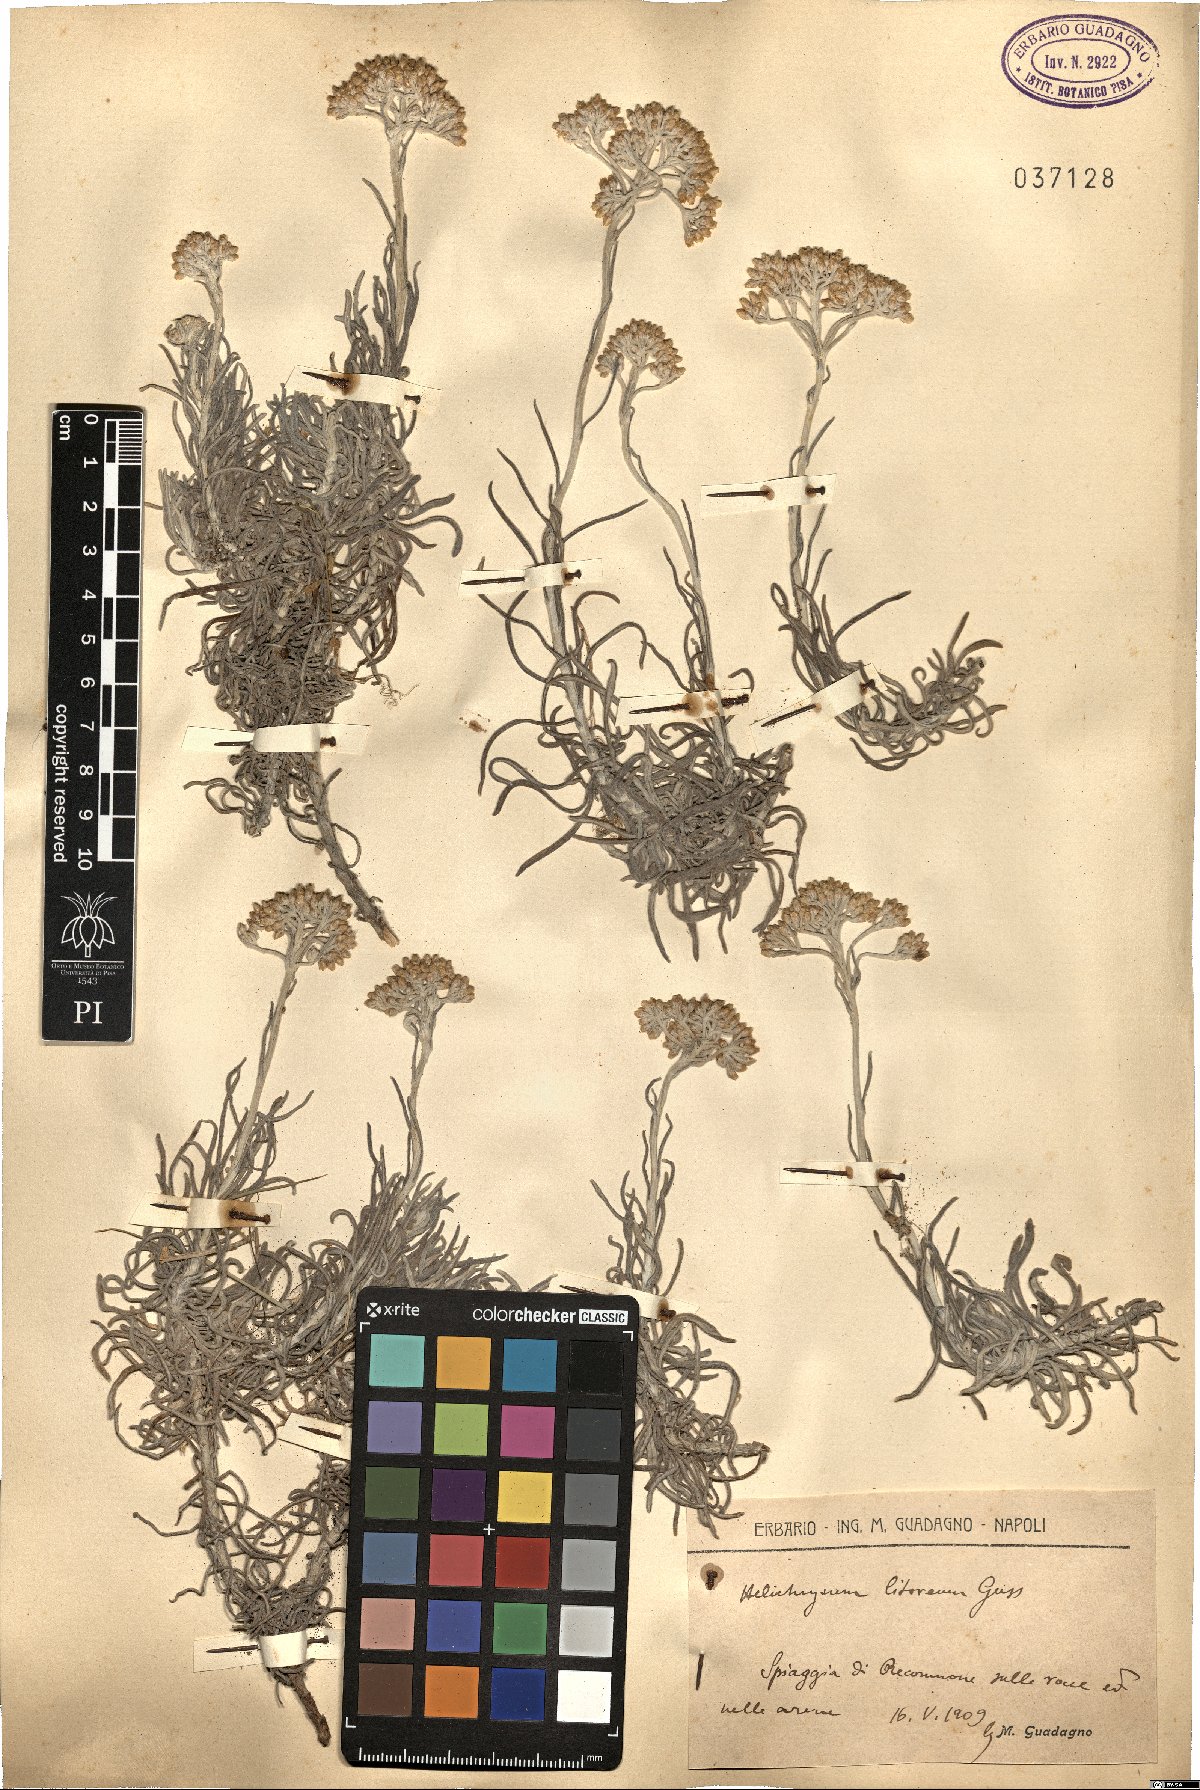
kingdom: Plantae
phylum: Tracheophyta
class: Magnoliopsida
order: Asterales
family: Asteraceae
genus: Helichrysum
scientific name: Helichrysum litoreum
